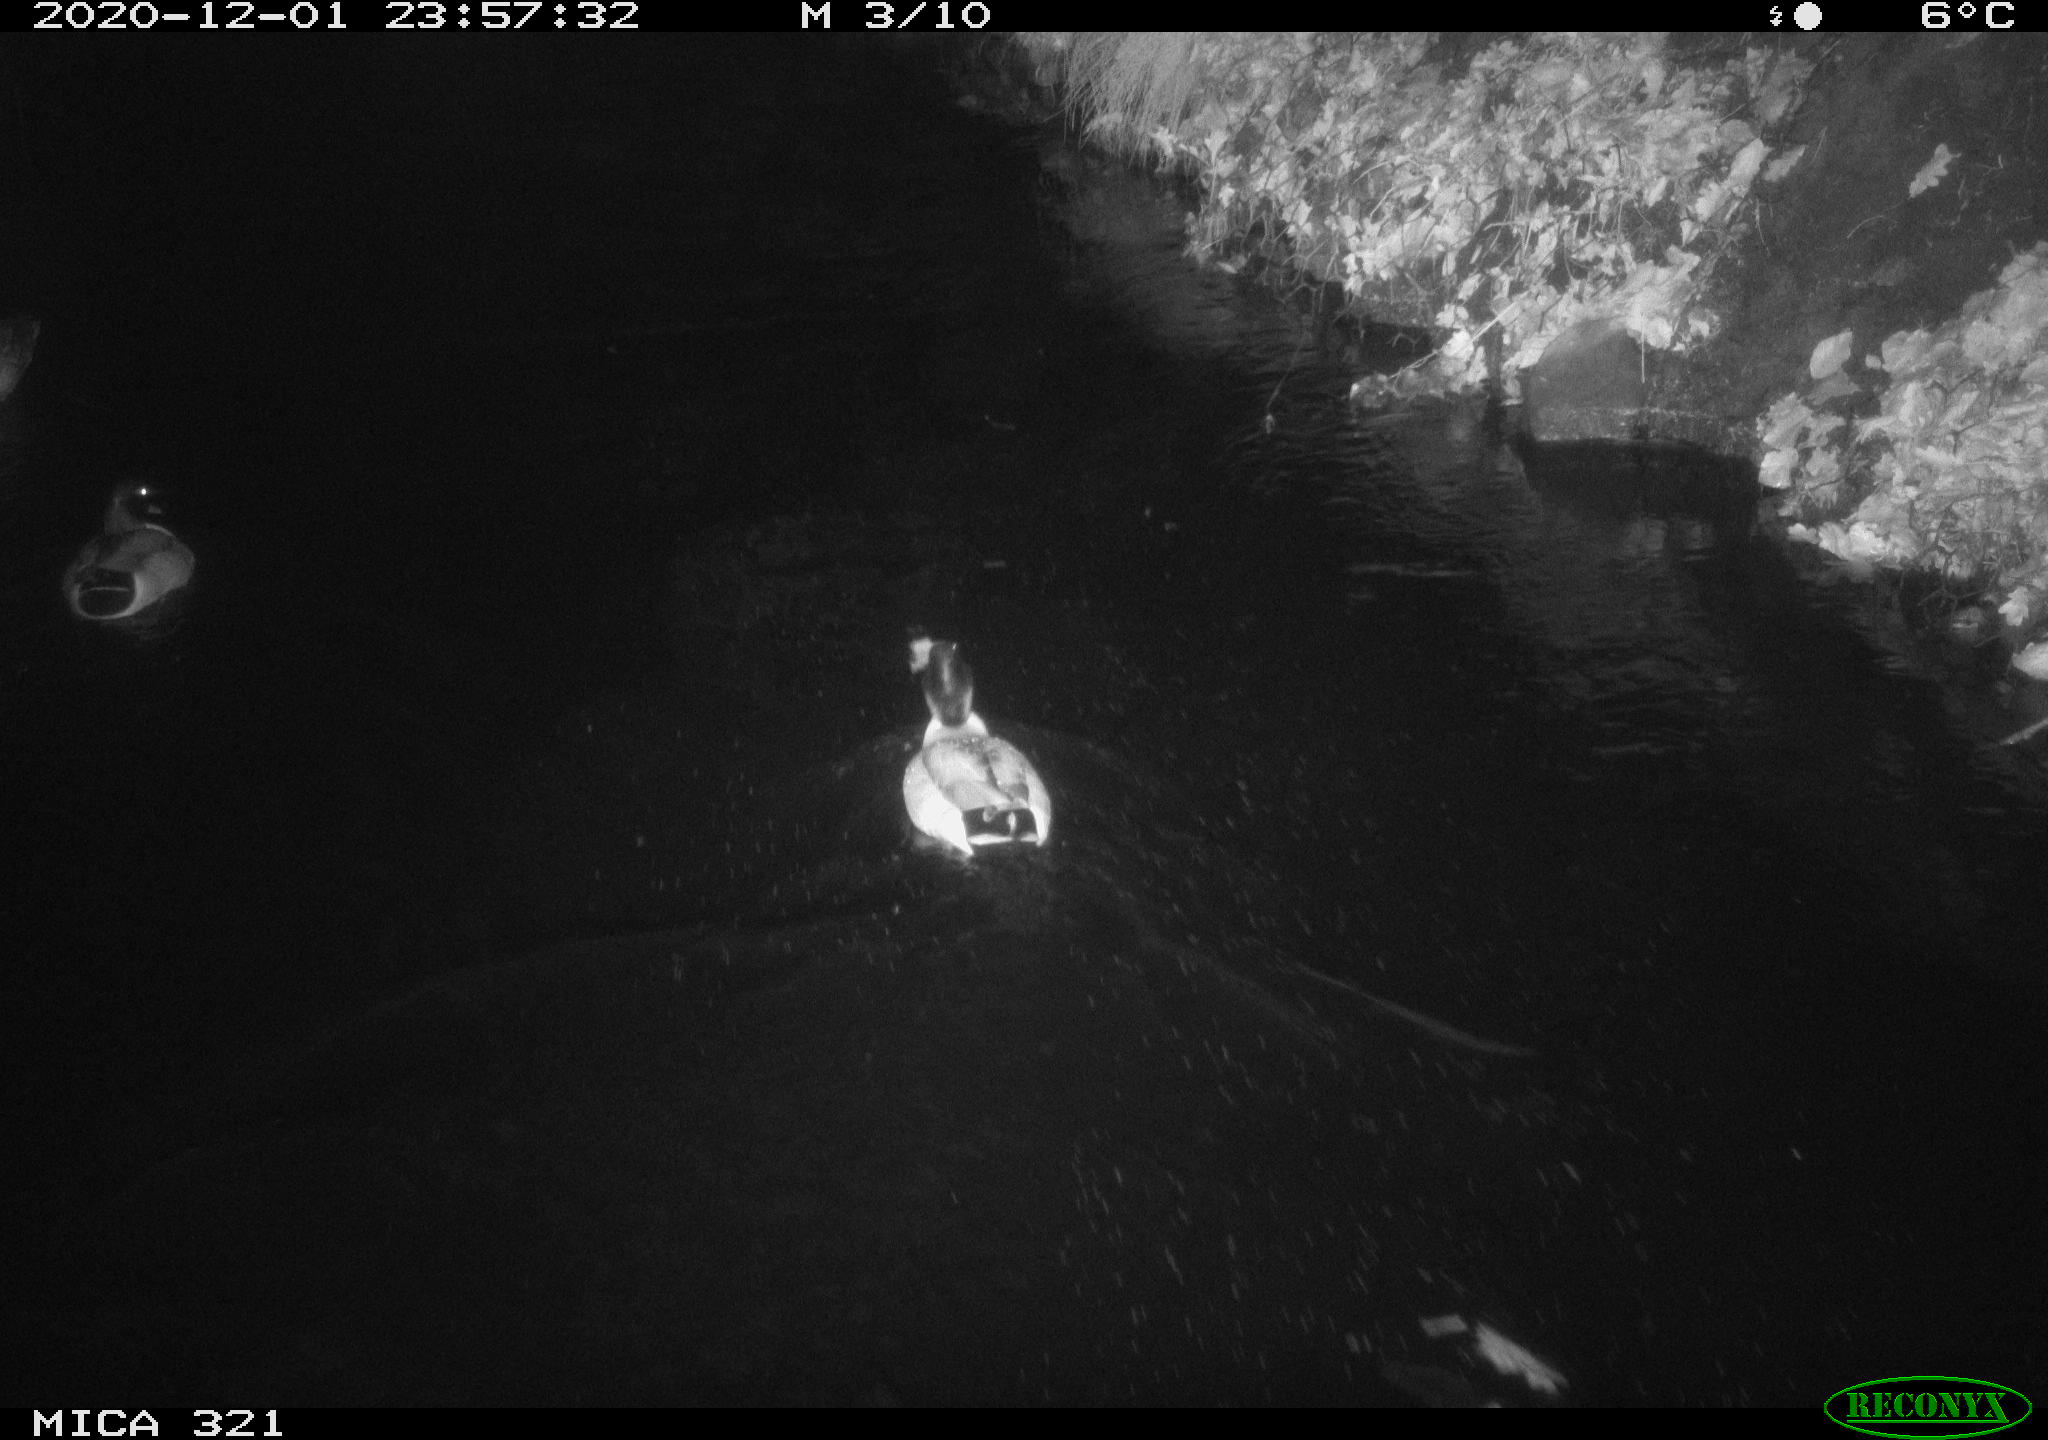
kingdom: Animalia
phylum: Chordata
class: Aves
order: Anseriformes
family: Anatidae
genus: Anas
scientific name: Anas platyrhynchos
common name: Mallard
